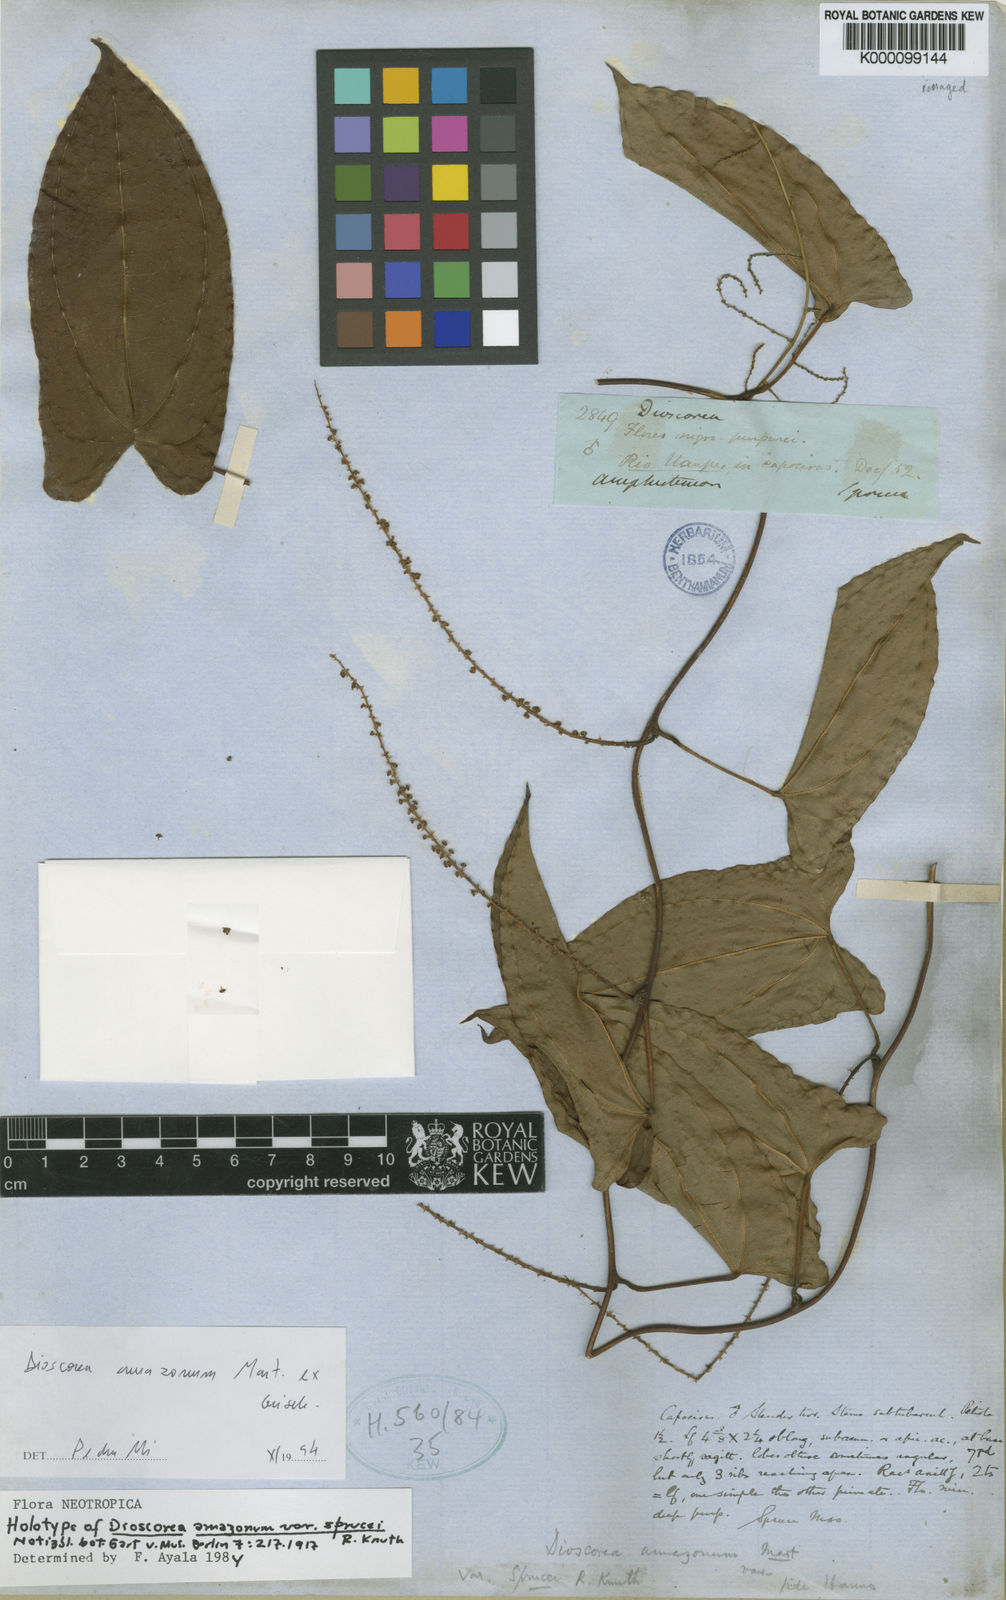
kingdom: Plantae
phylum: Tracheophyta
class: Liliopsida
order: Dioscoreales
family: Dioscoreaceae
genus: Dioscorea
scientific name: Dioscorea amazonum
